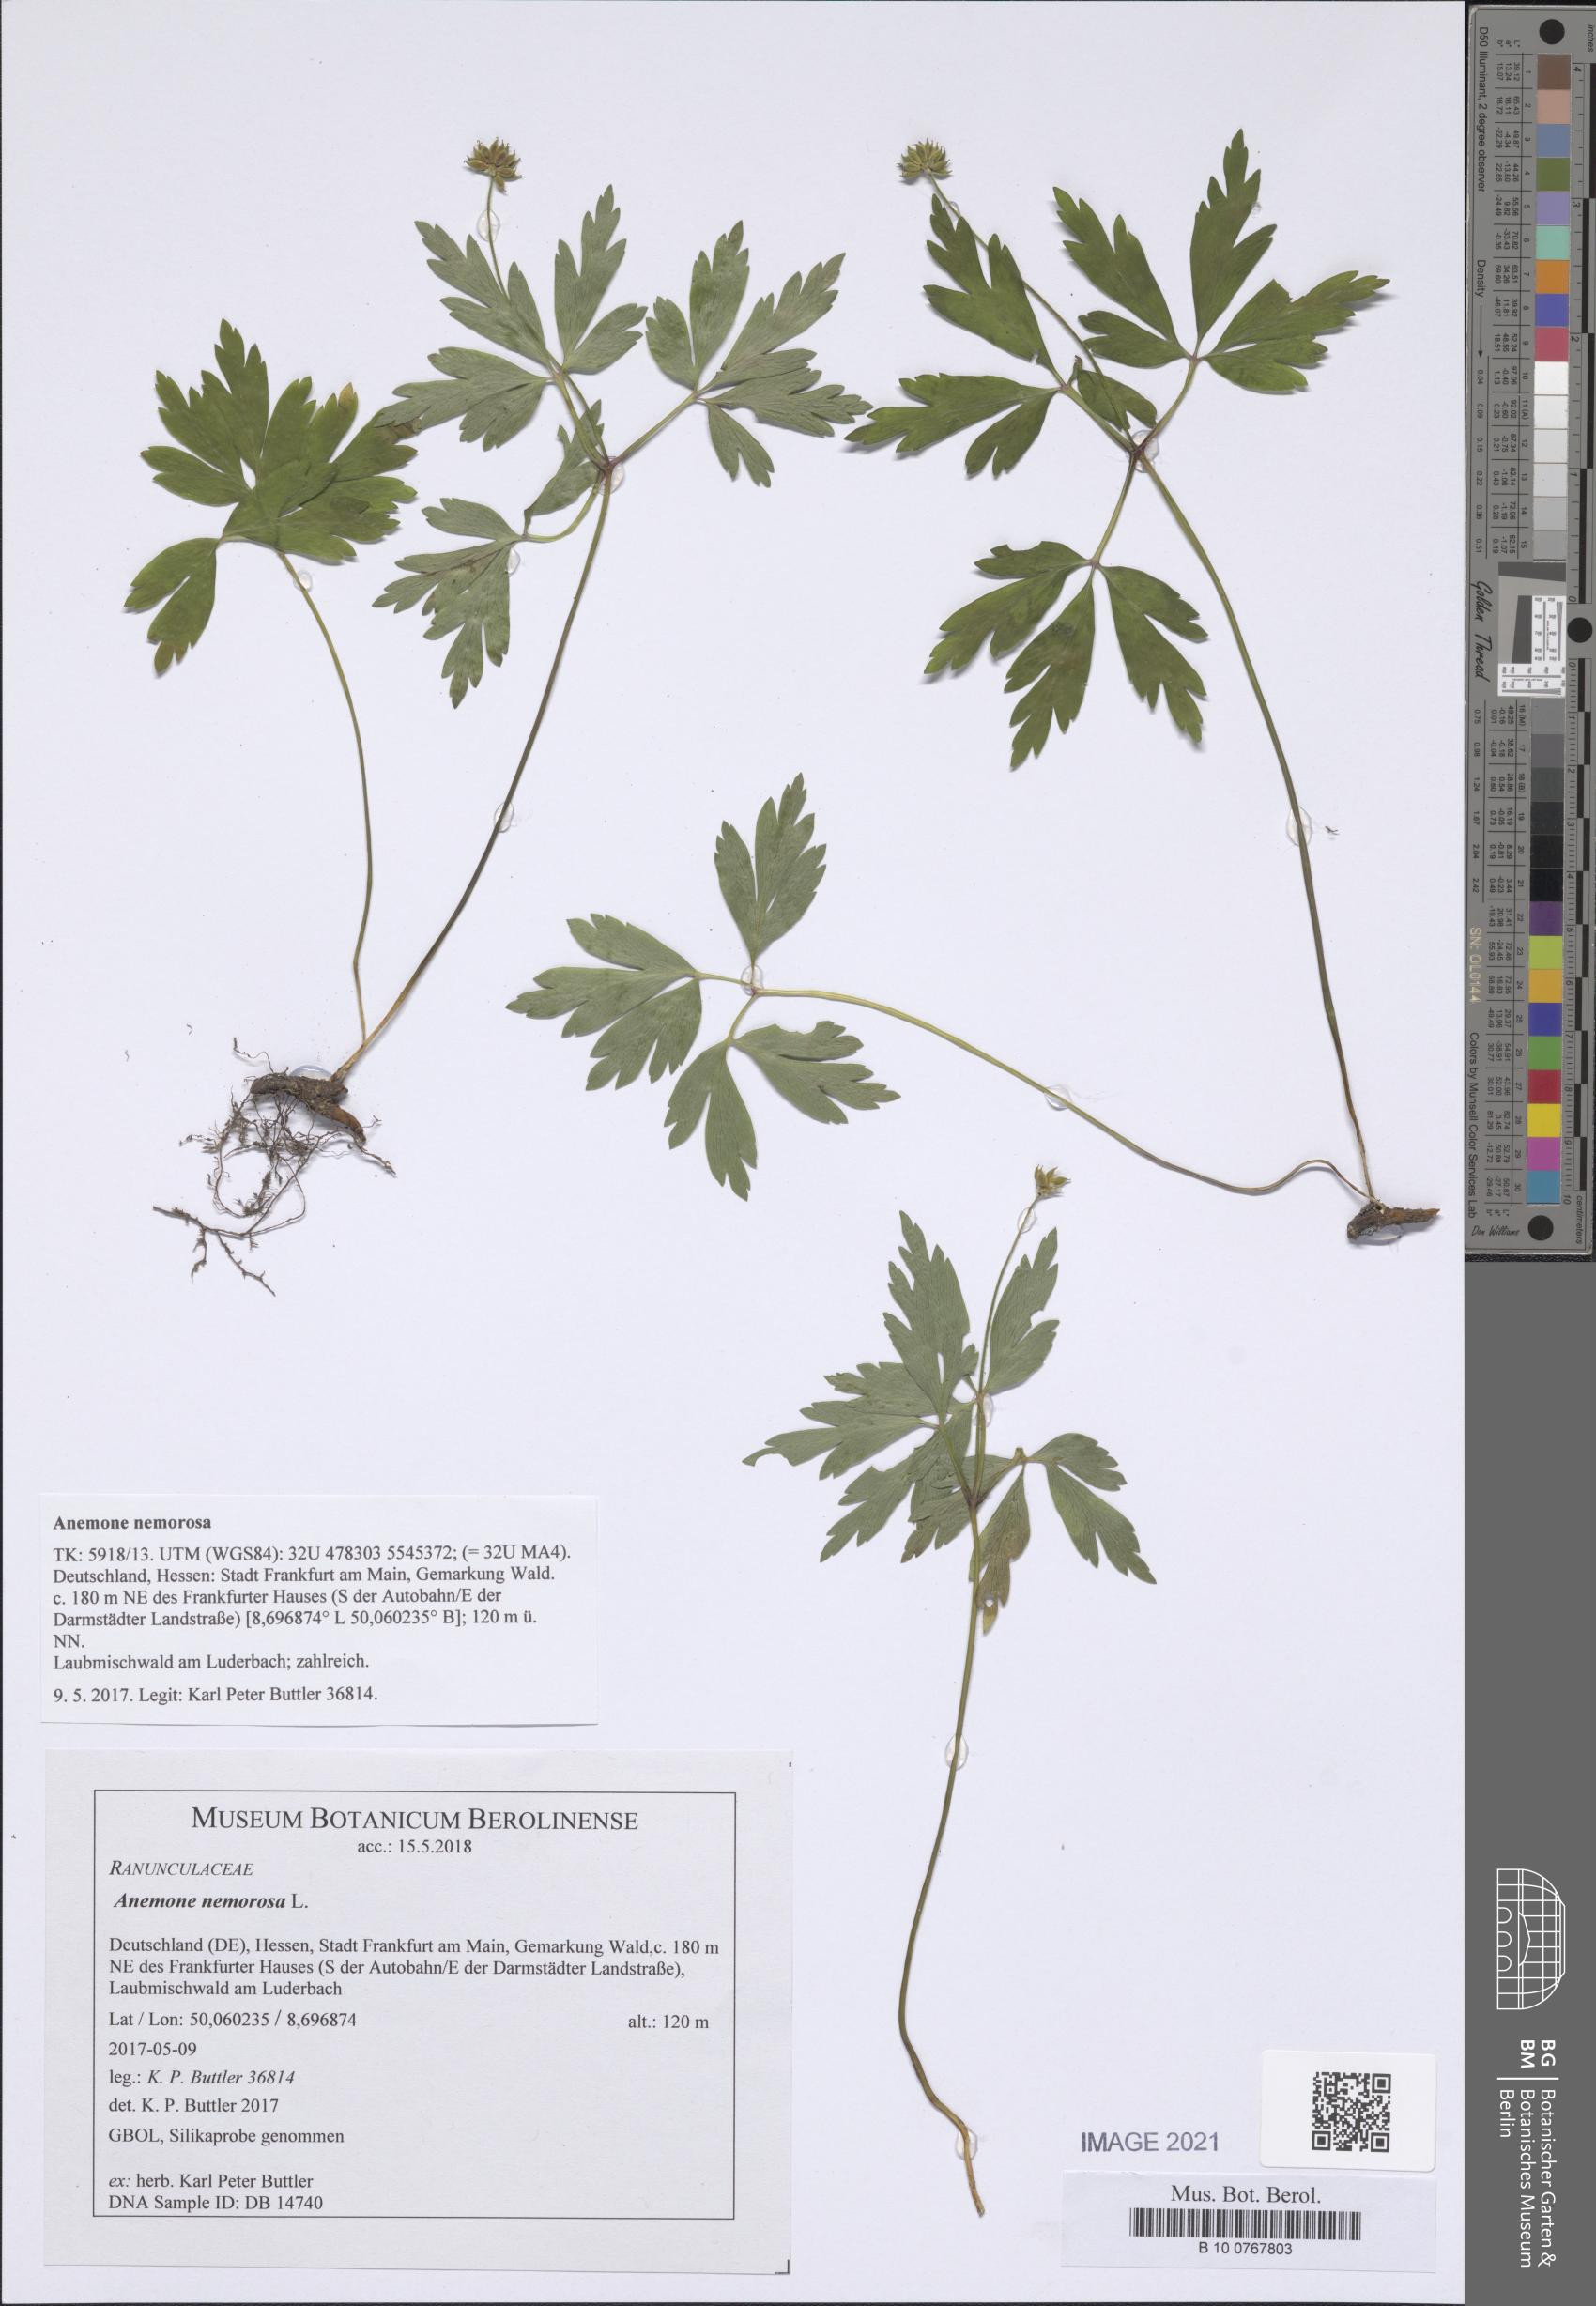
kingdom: Plantae
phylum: Tracheophyta
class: Magnoliopsida
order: Ranunculales
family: Ranunculaceae
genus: Anemone
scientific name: Anemone nemorosa
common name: Wood anemone
